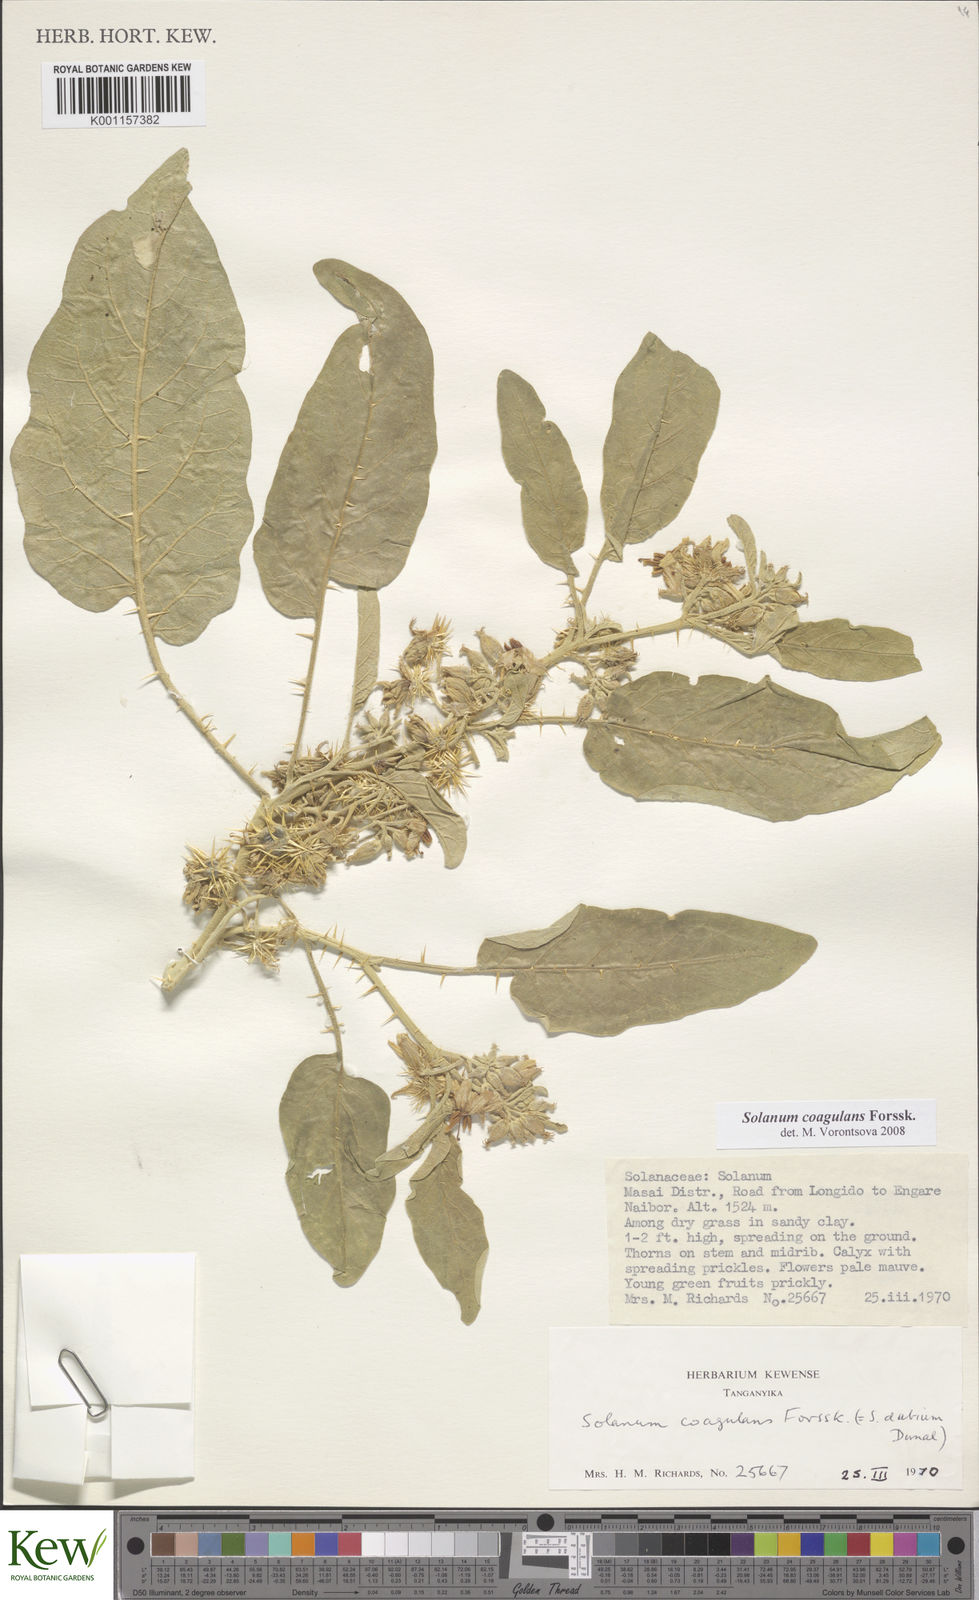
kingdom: Plantae
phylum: Tracheophyta
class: Magnoliopsida
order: Solanales
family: Solanaceae
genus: Solanum
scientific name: Solanum coagulans
